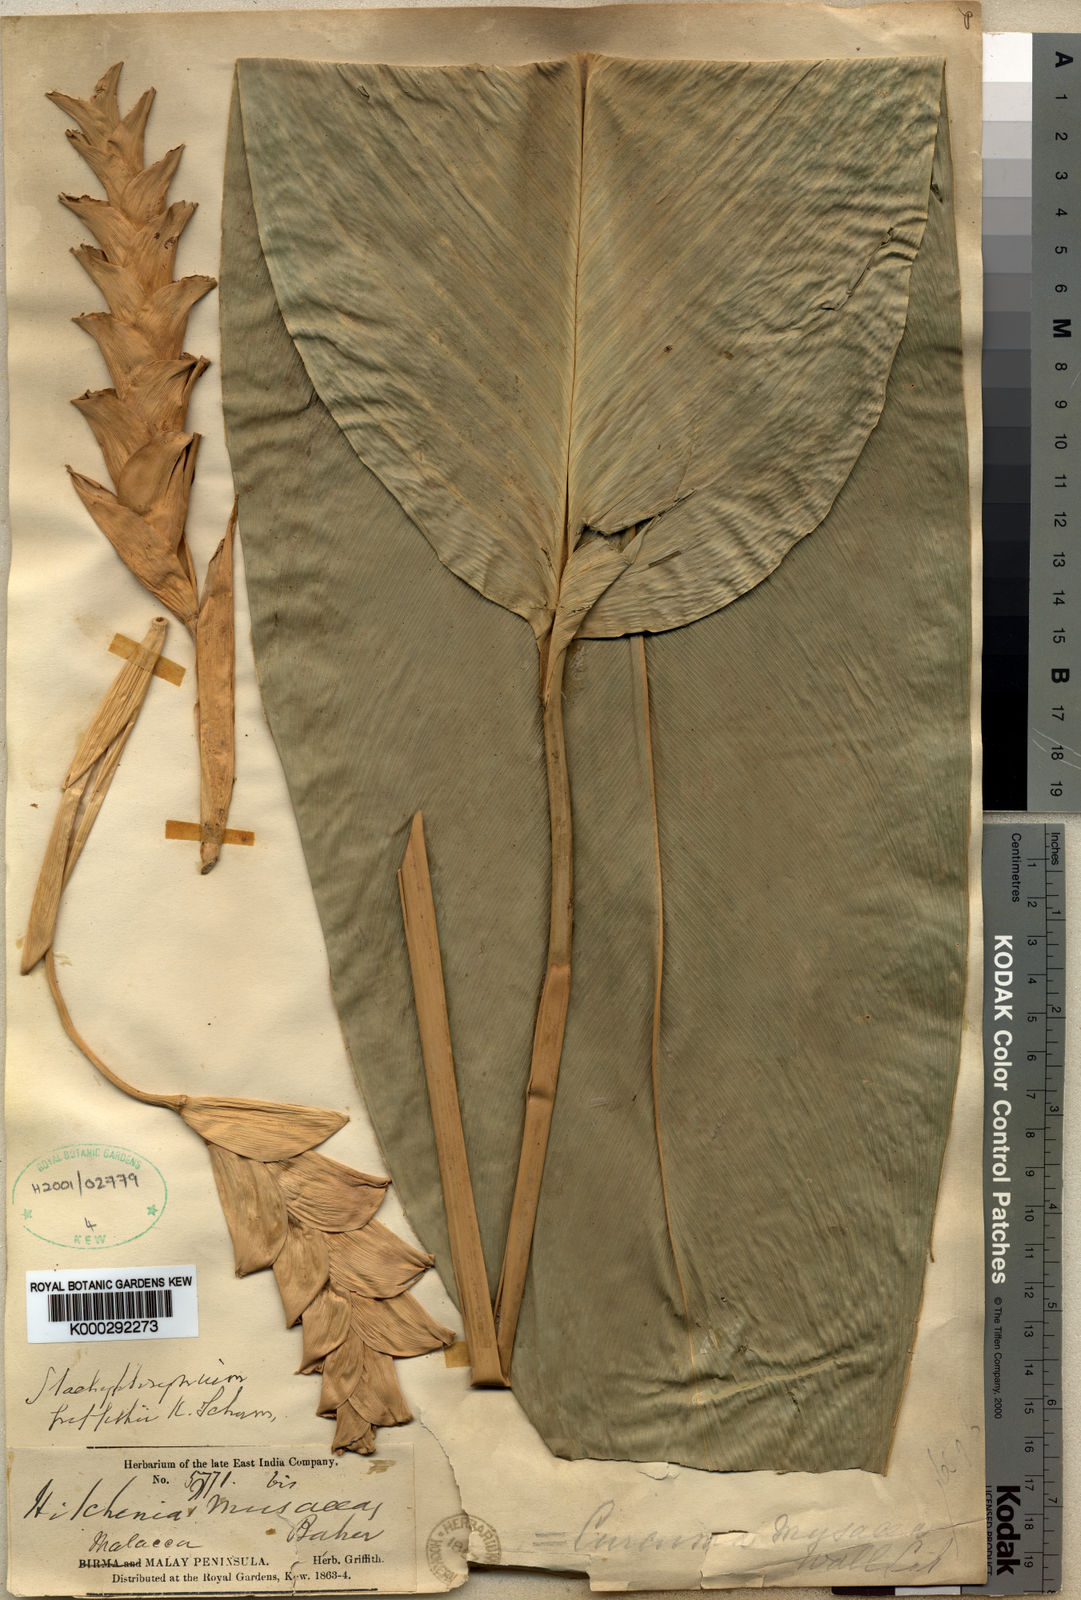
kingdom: Plantae
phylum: Tracheophyta
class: Liliopsida
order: Zingiberales
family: Marantaceae
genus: Stachyphrynium
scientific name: Stachyphrynium latifolium
